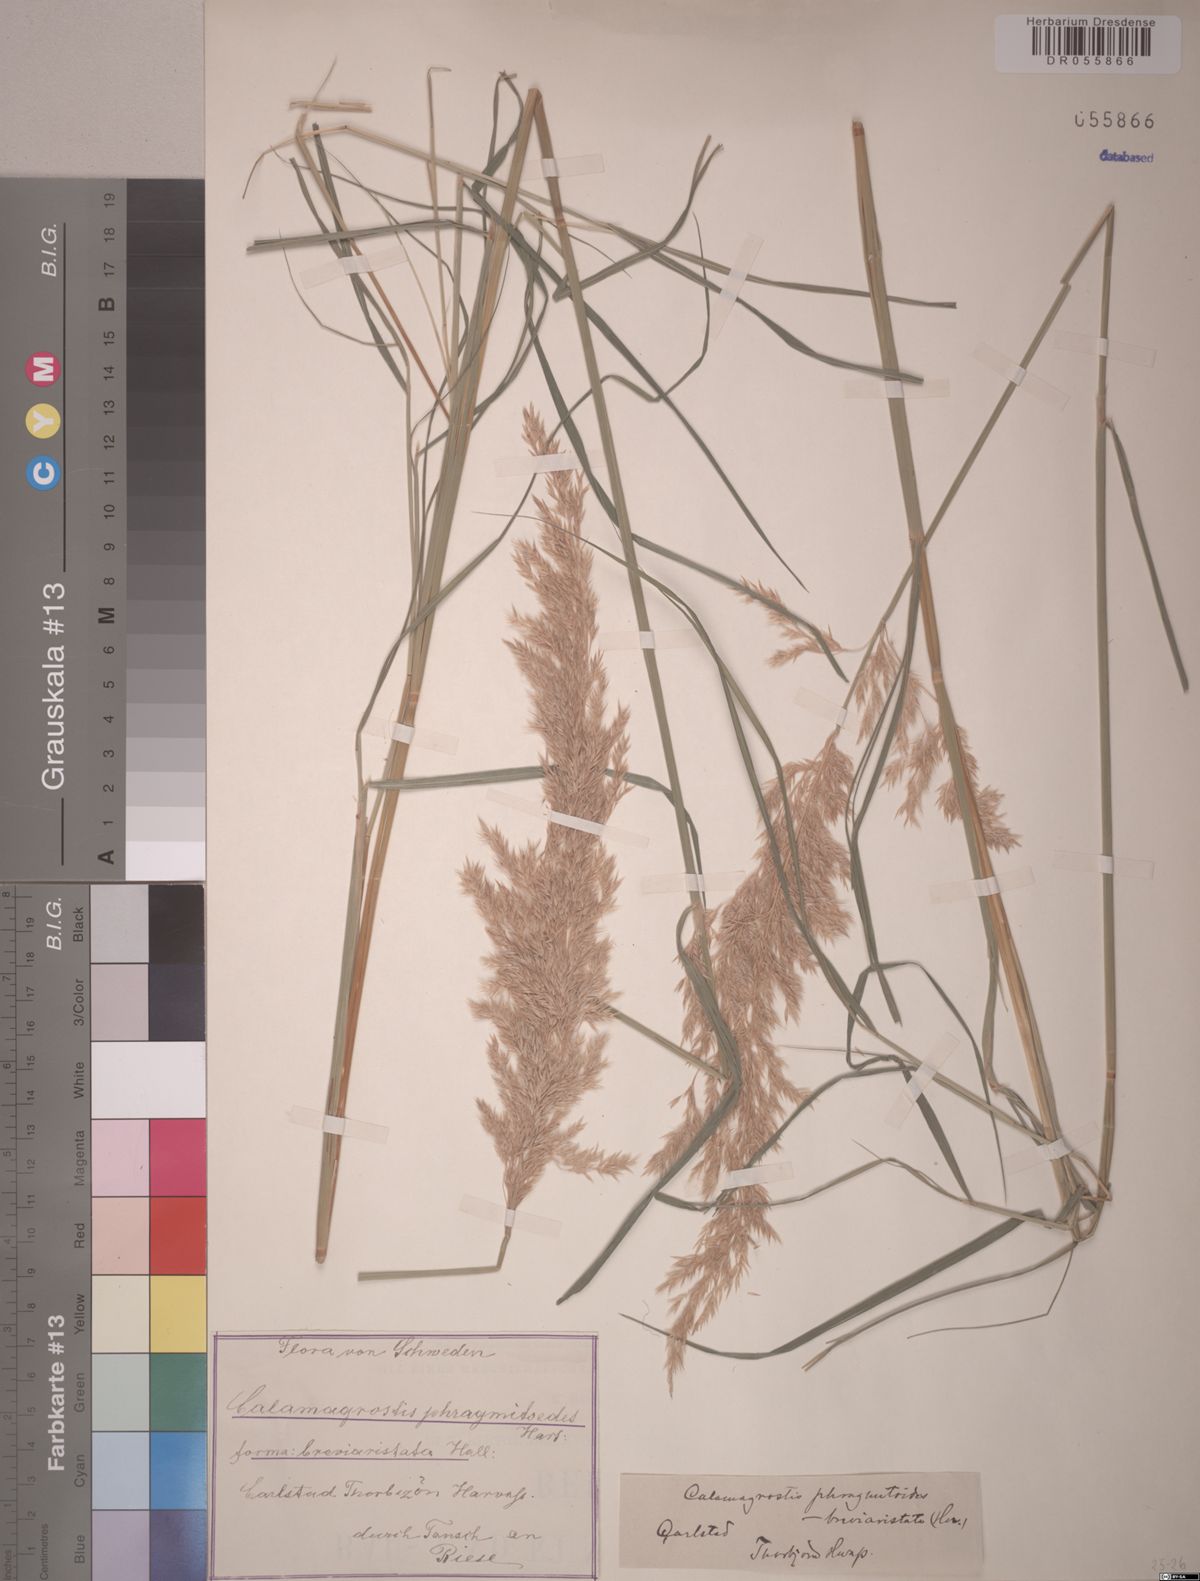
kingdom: Plantae
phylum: Tracheophyta
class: Liliopsida
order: Poales
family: Poaceae
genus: Calamagrostis
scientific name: Calamagrostis purpurea
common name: Scandinavian small-reed
